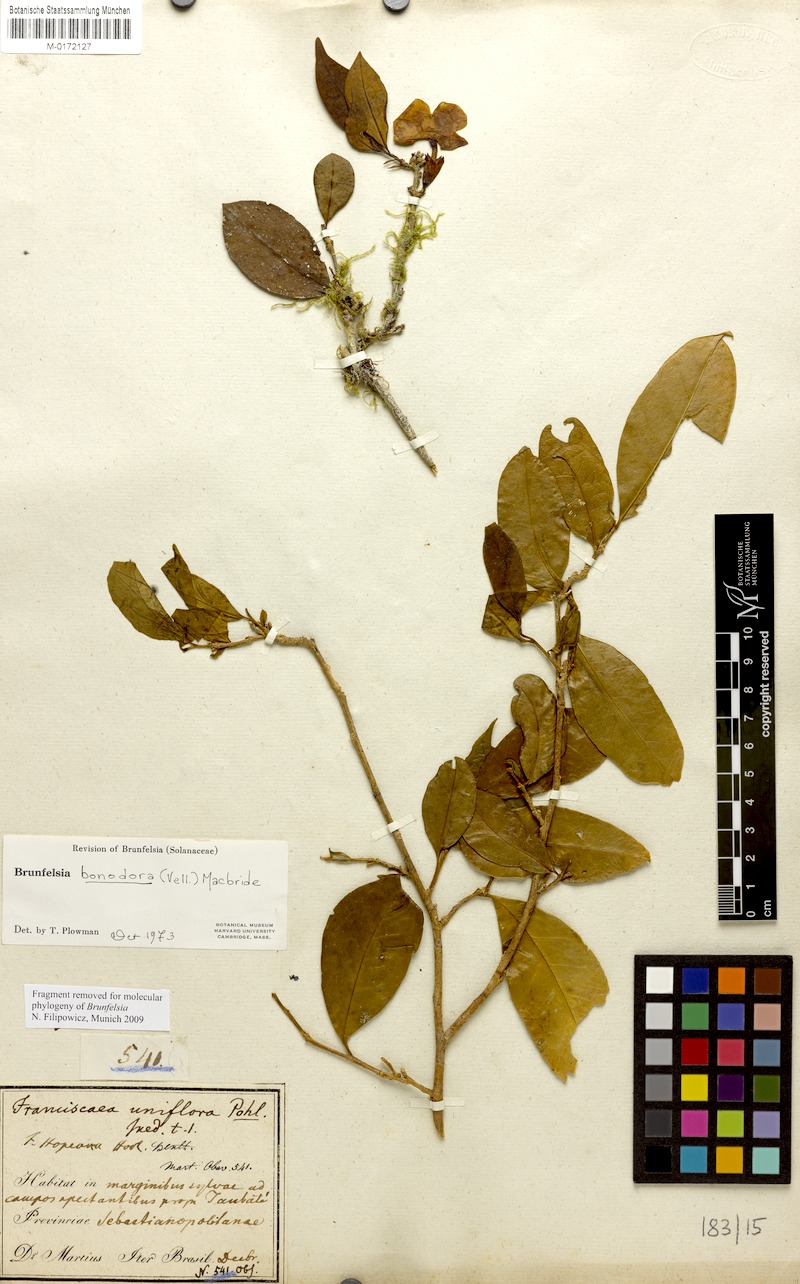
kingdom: Plantae
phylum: Tracheophyta
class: Magnoliopsida
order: Solanales
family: Solanaceae
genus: Brunfelsia
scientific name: Brunfelsia bonodora
